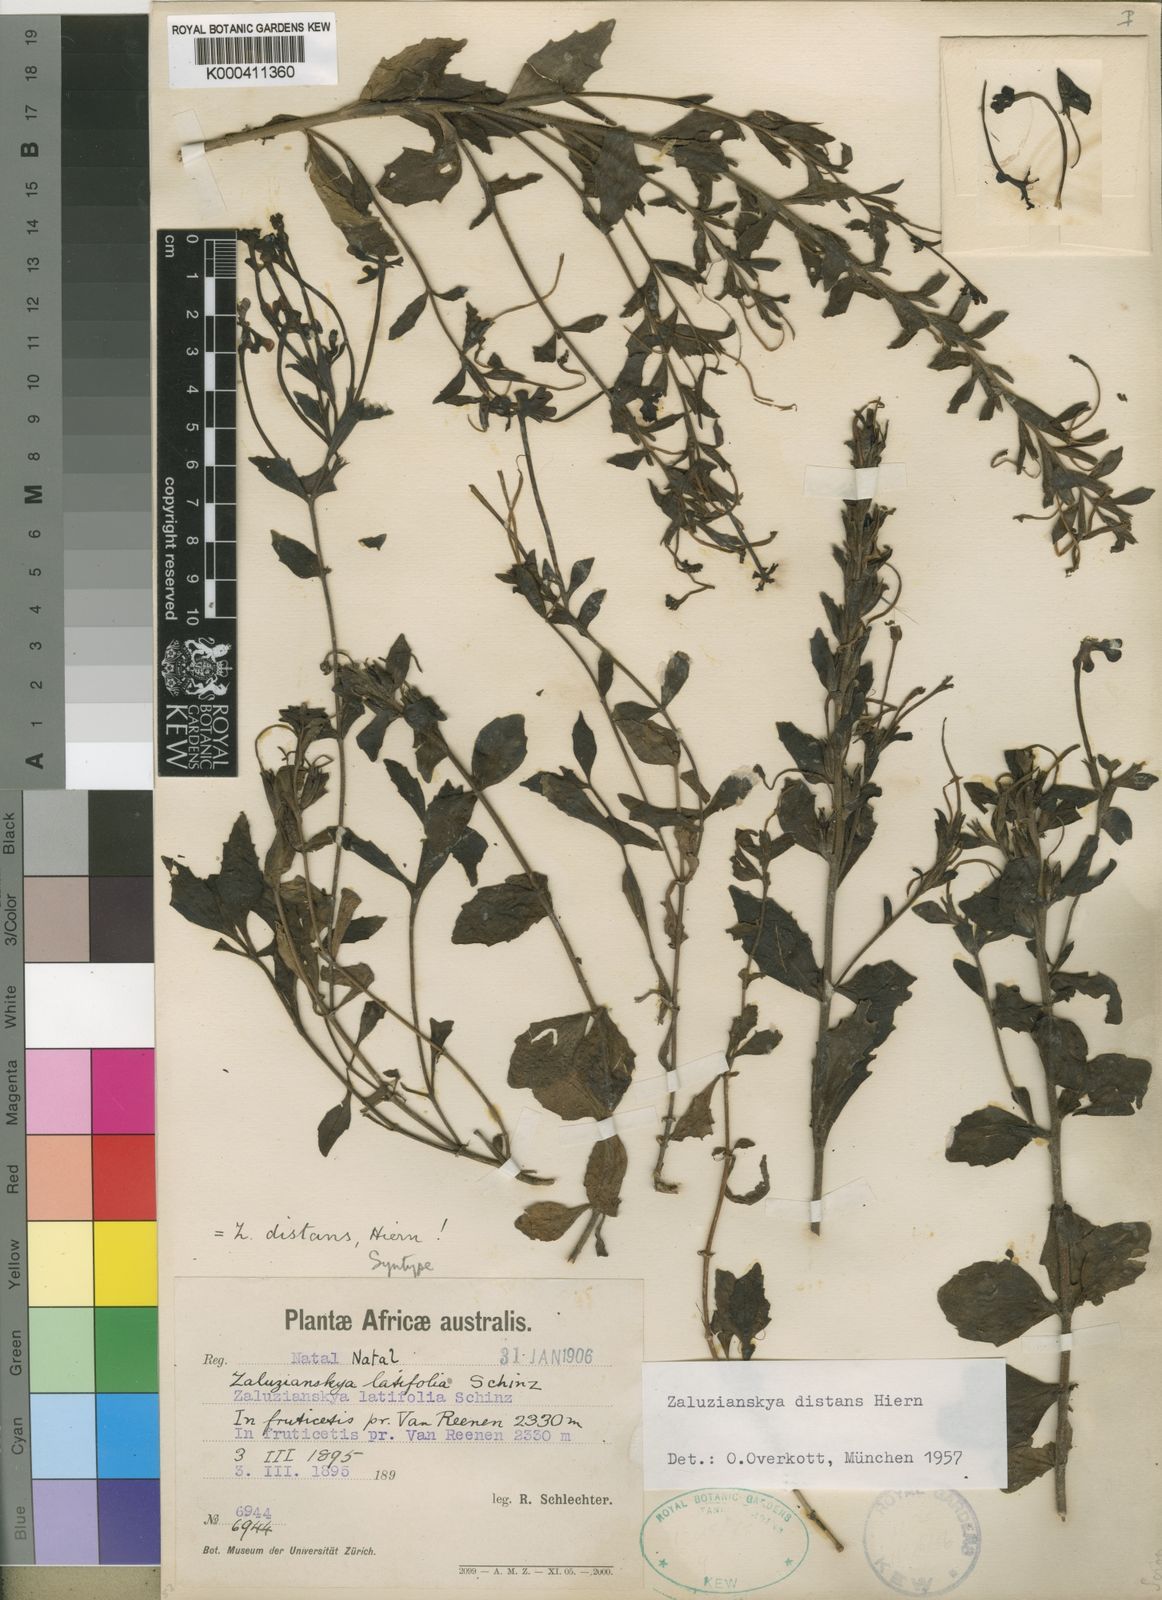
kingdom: Plantae
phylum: Tracheophyta
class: Magnoliopsida
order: Lamiales
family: Scrophulariaceae
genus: Zaluzianskya
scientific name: Zaluzianskya distans
